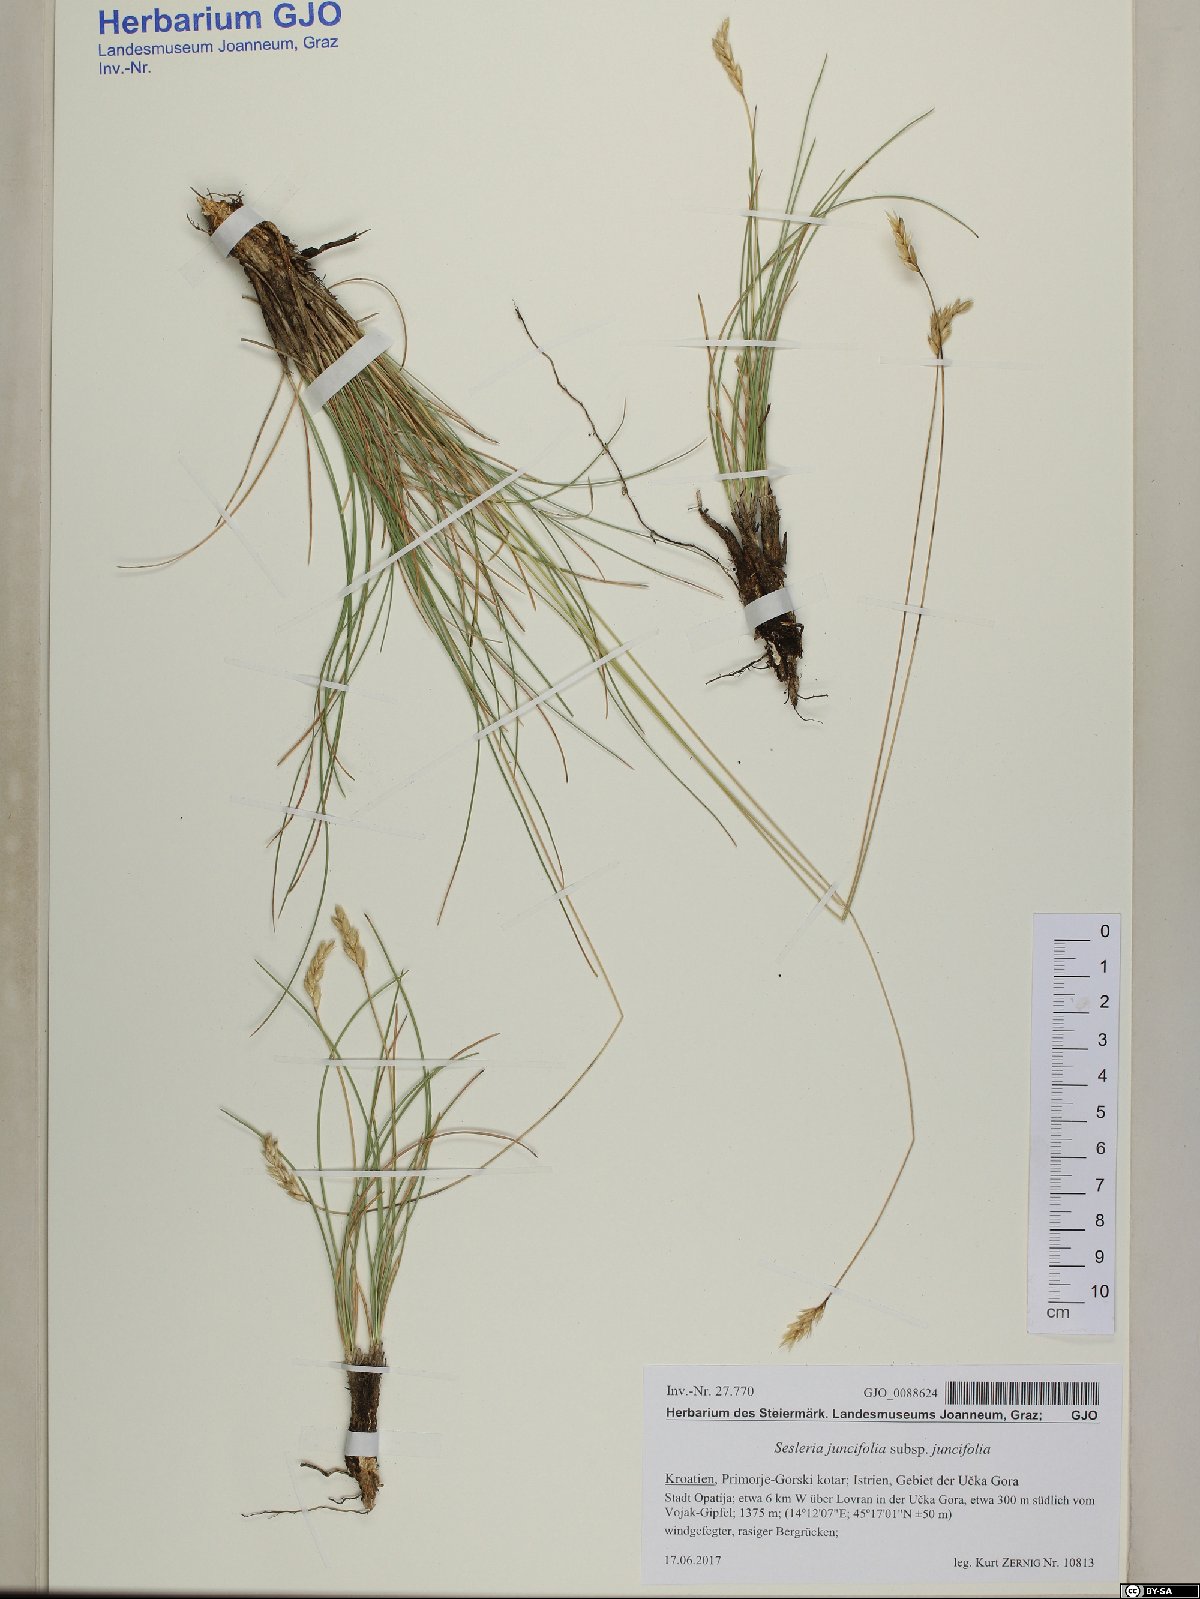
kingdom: Plantae
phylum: Tracheophyta
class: Liliopsida
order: Poales
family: Poaceae
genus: Sesleria
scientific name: Sesleria juncifolia
